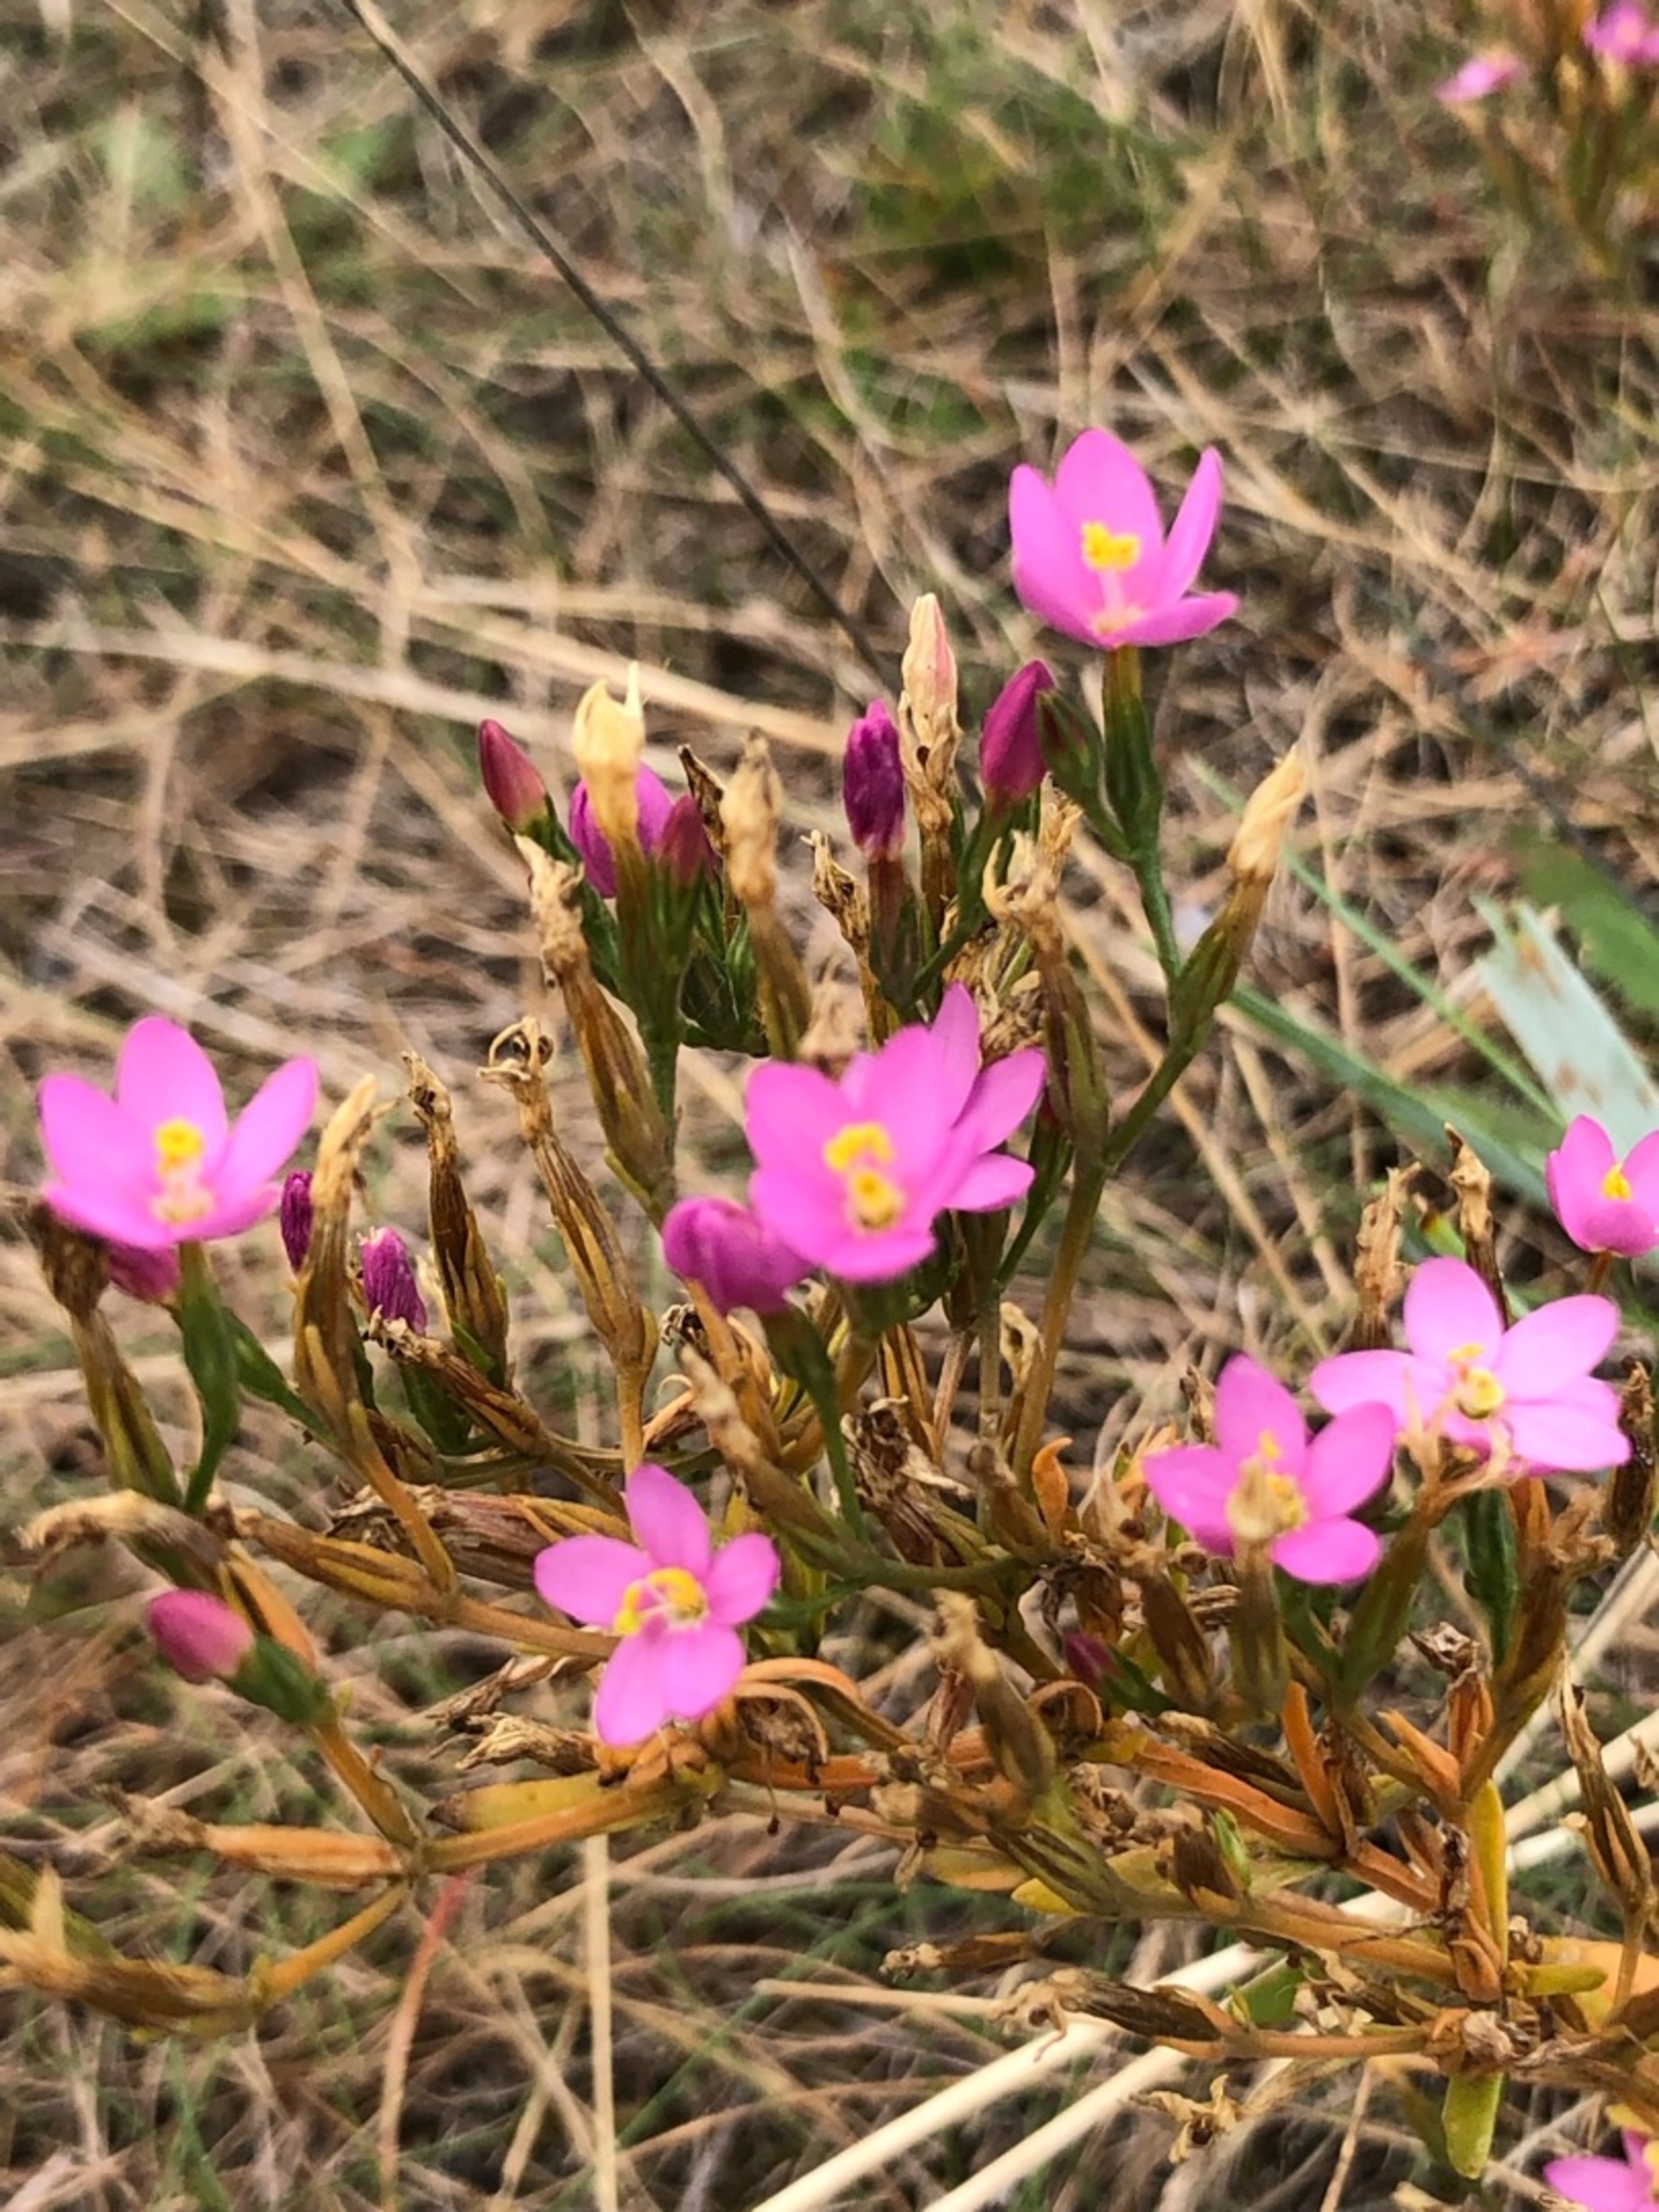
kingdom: Plantae
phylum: Tracheophyta
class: Magnoliopsida
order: Gentianales
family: Gentianaceae
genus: Centaurium
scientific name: Centaurium erythraea
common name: Mark-tusindgylden
